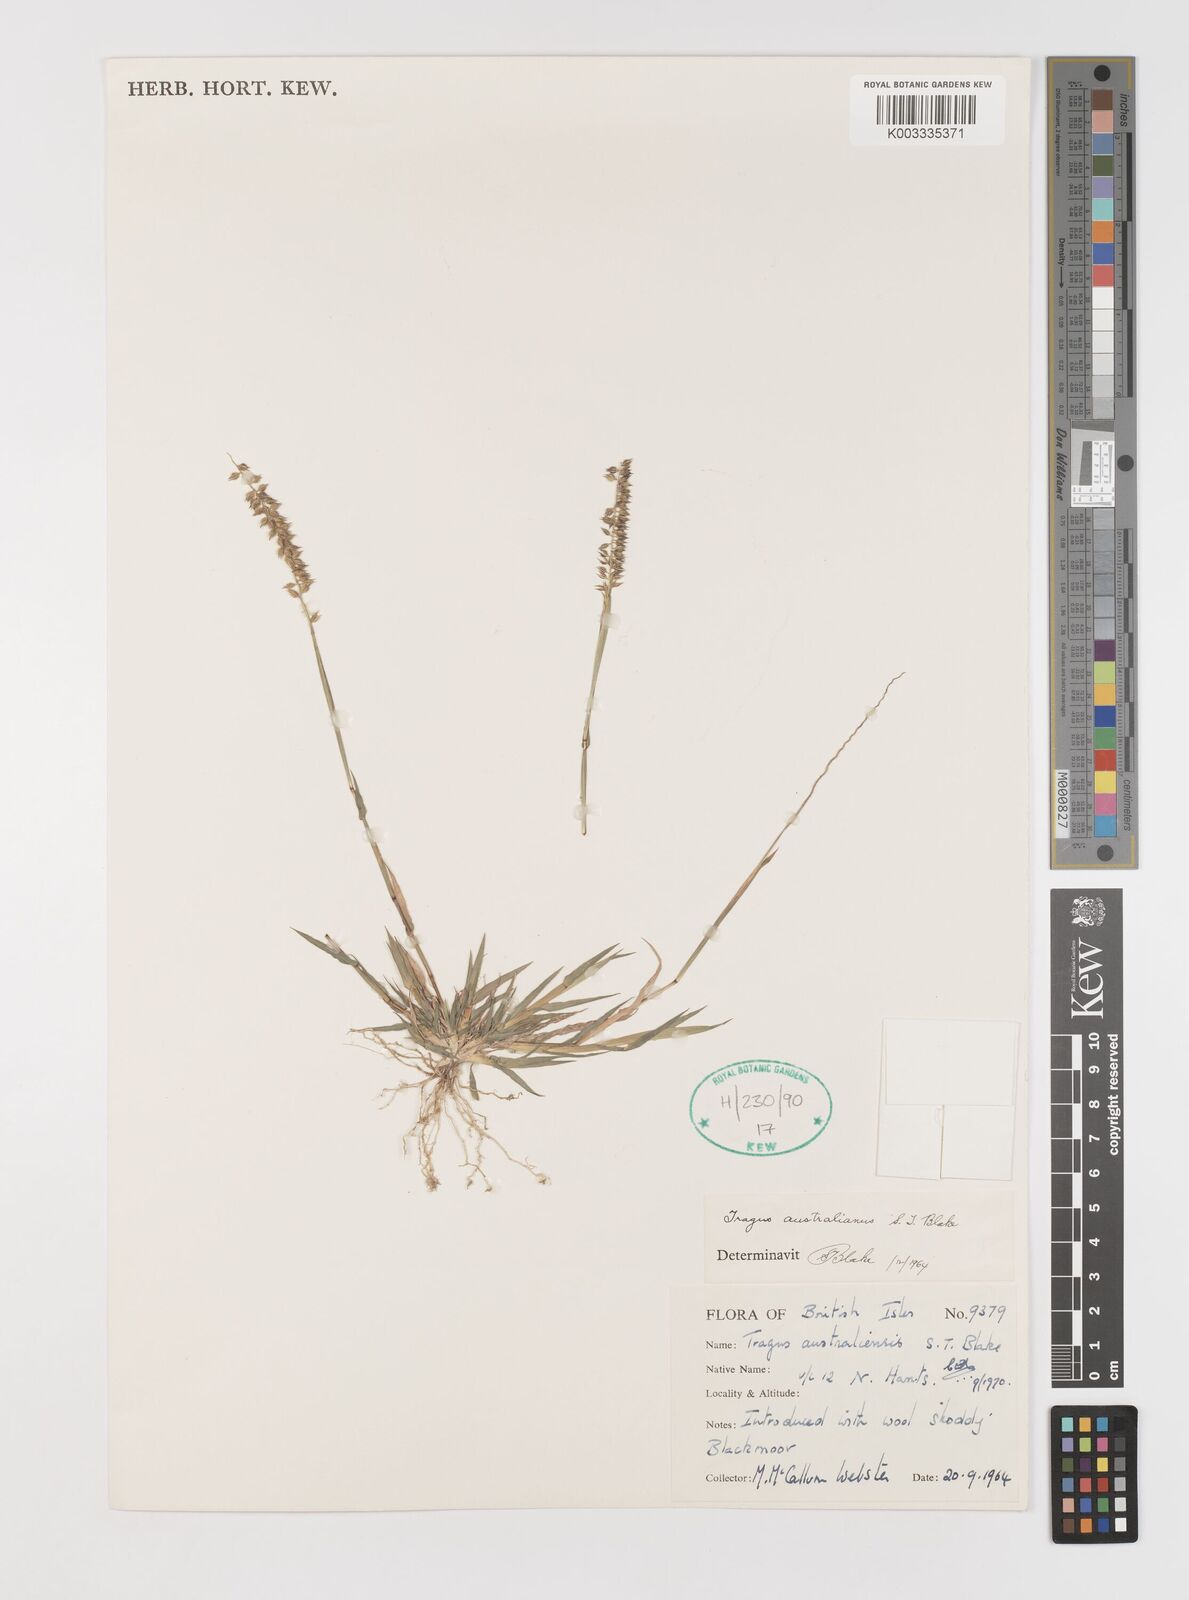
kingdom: Plantae
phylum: Tracheophyta
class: Liliopsida
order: Poales
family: Poaceae
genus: Tragus
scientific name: Tragus australianus
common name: Australian bur-grass
